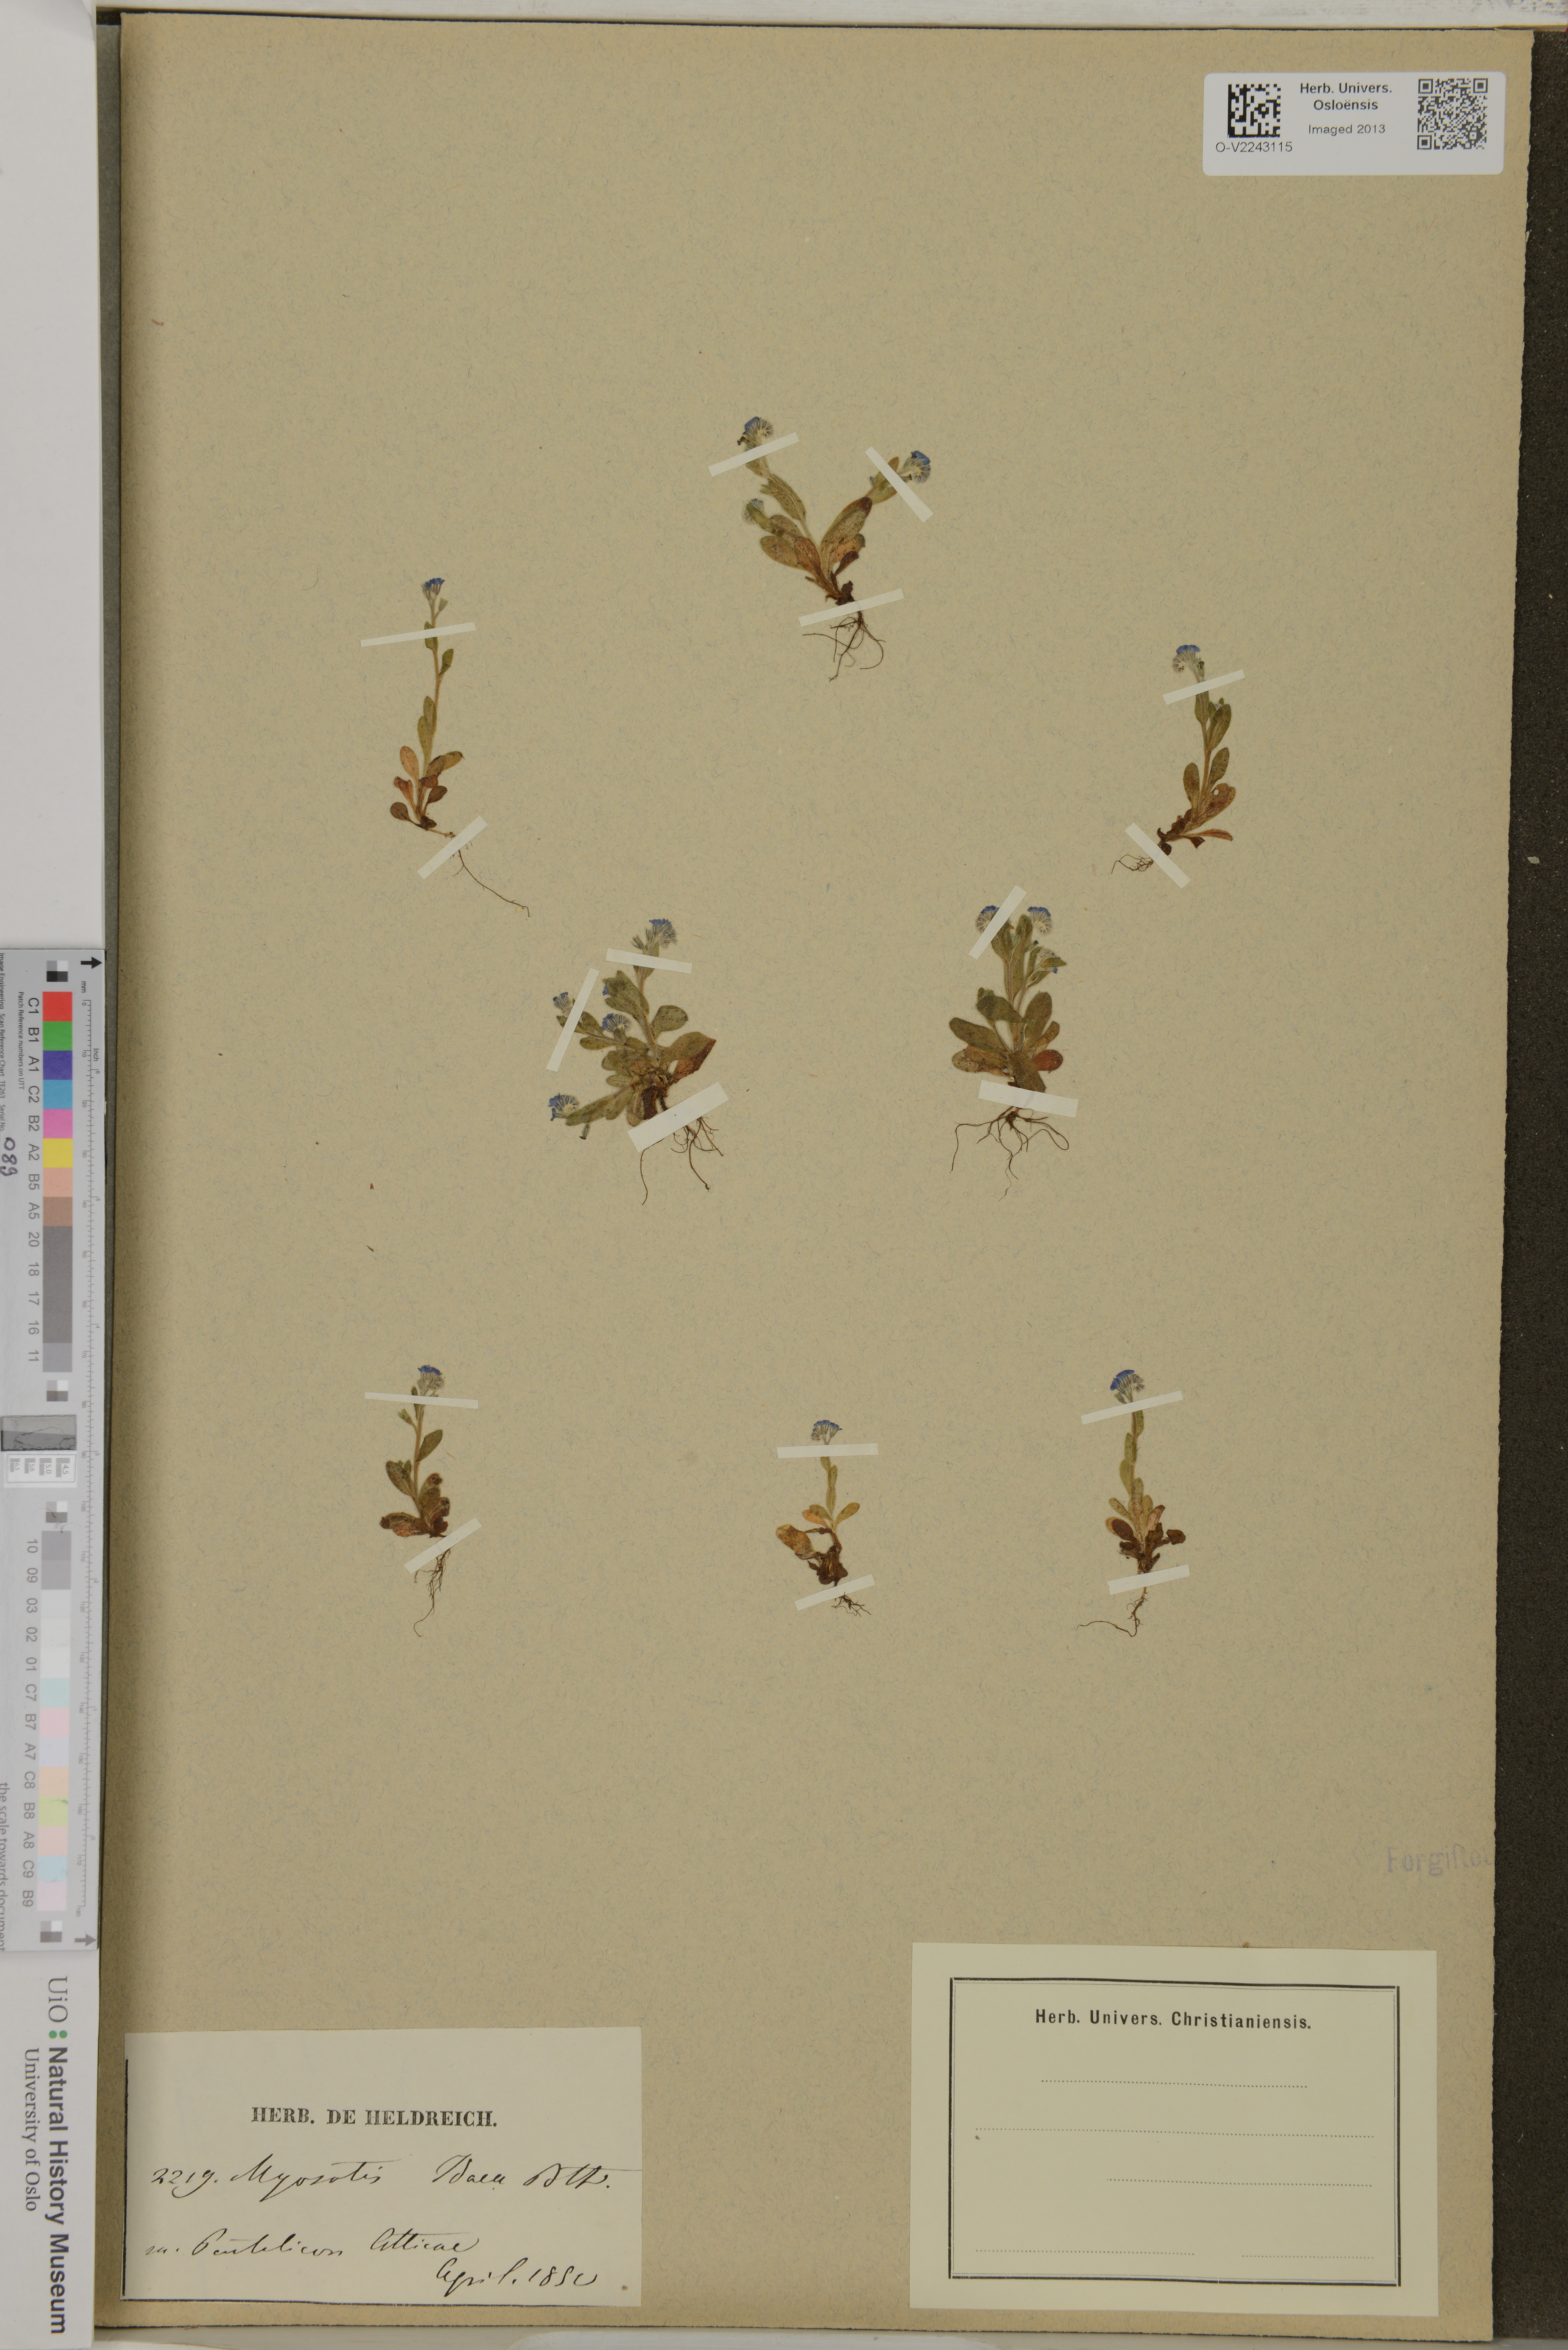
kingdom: Plantae
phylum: Tracheophyta
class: Magnoliopsida
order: Boraginales
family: Boraginaceae
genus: Myosotis
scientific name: Myosotis incrassata
